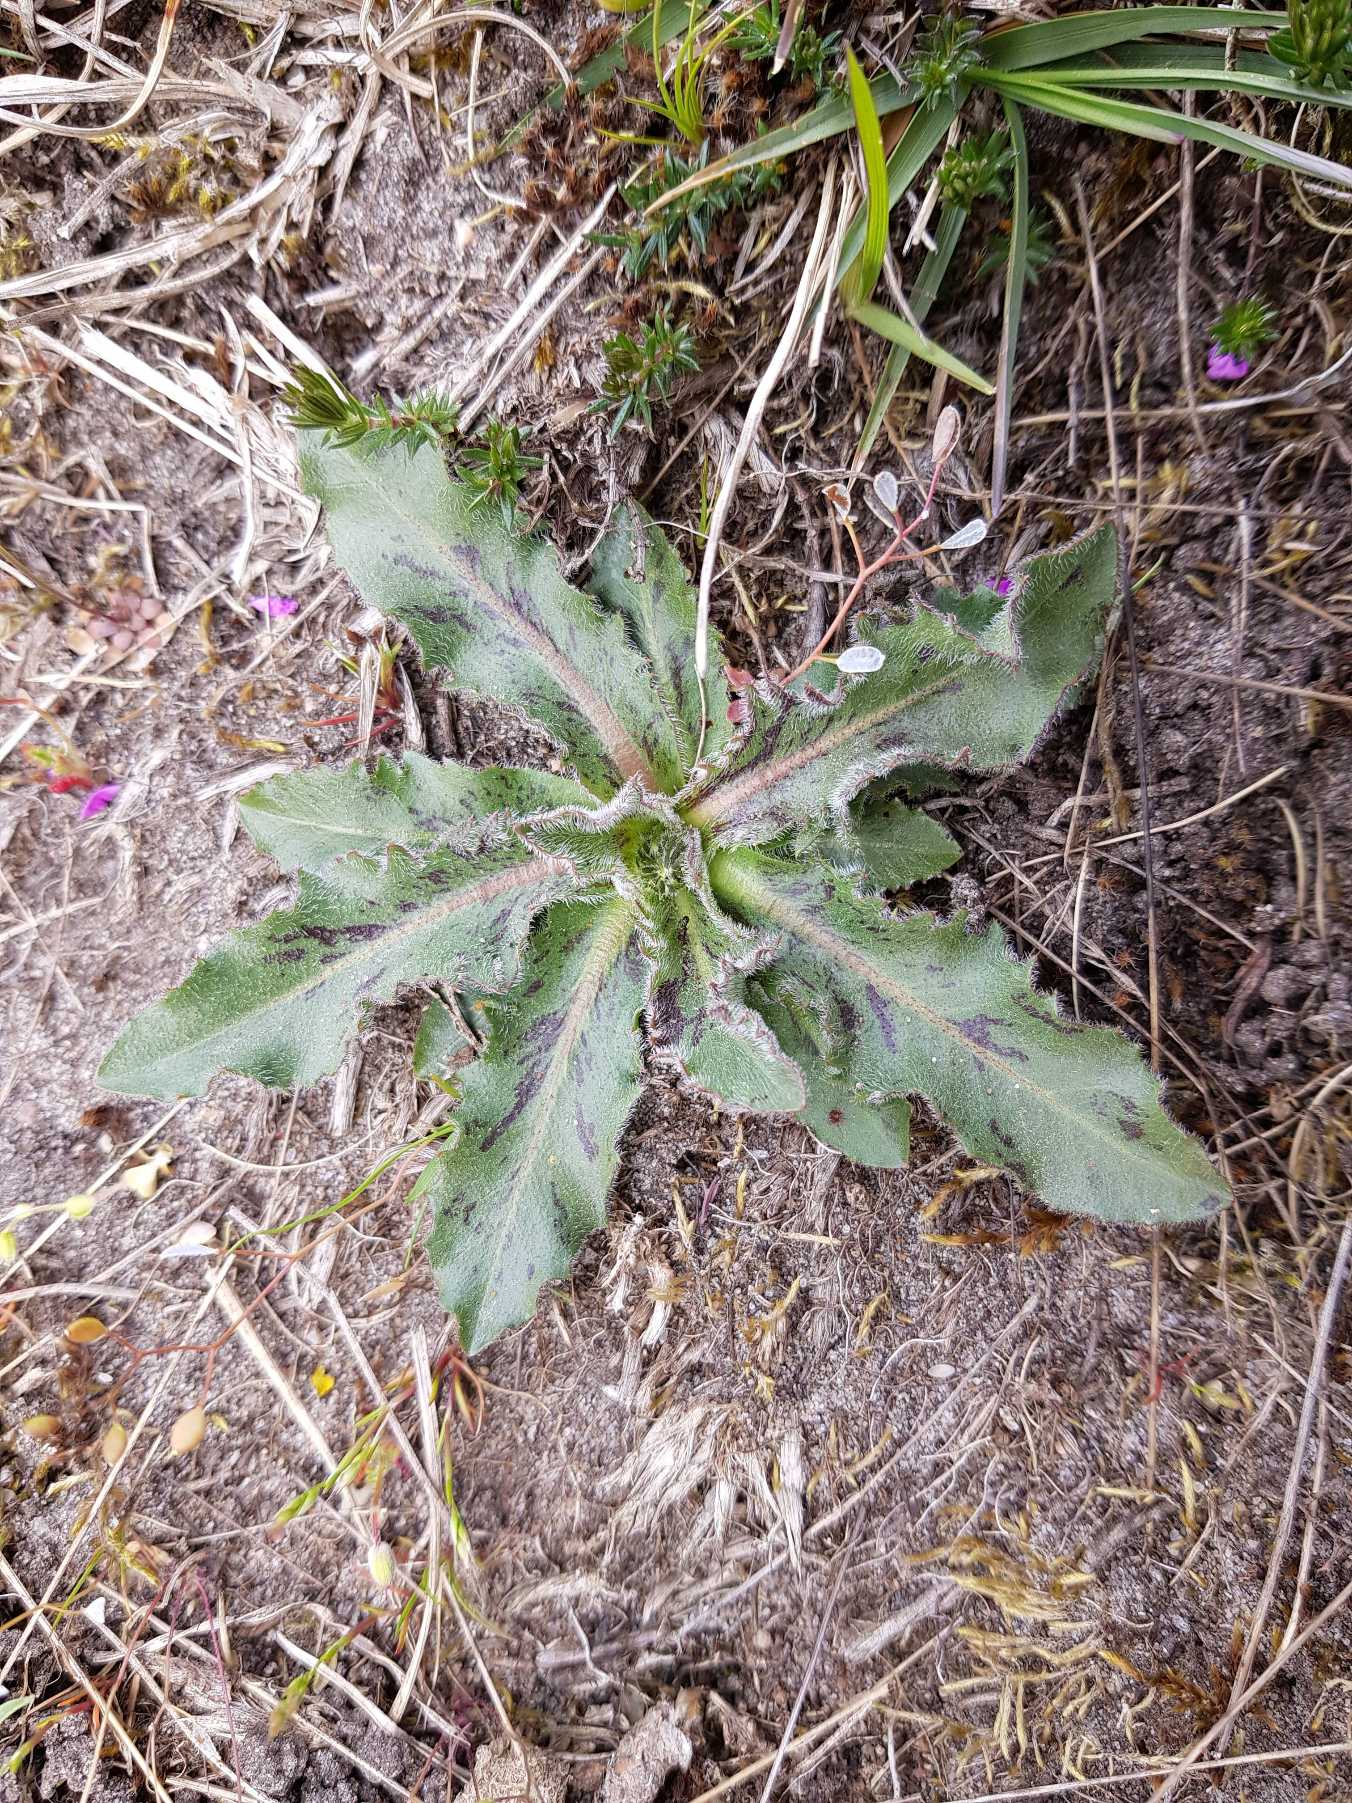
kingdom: Plantae
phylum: Tracheophyta
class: Magnoliopsida
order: Asterales
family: Asteraceae
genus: Trommsdorffia
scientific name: Trommsdorffia maculata
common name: Plettet kongepen
